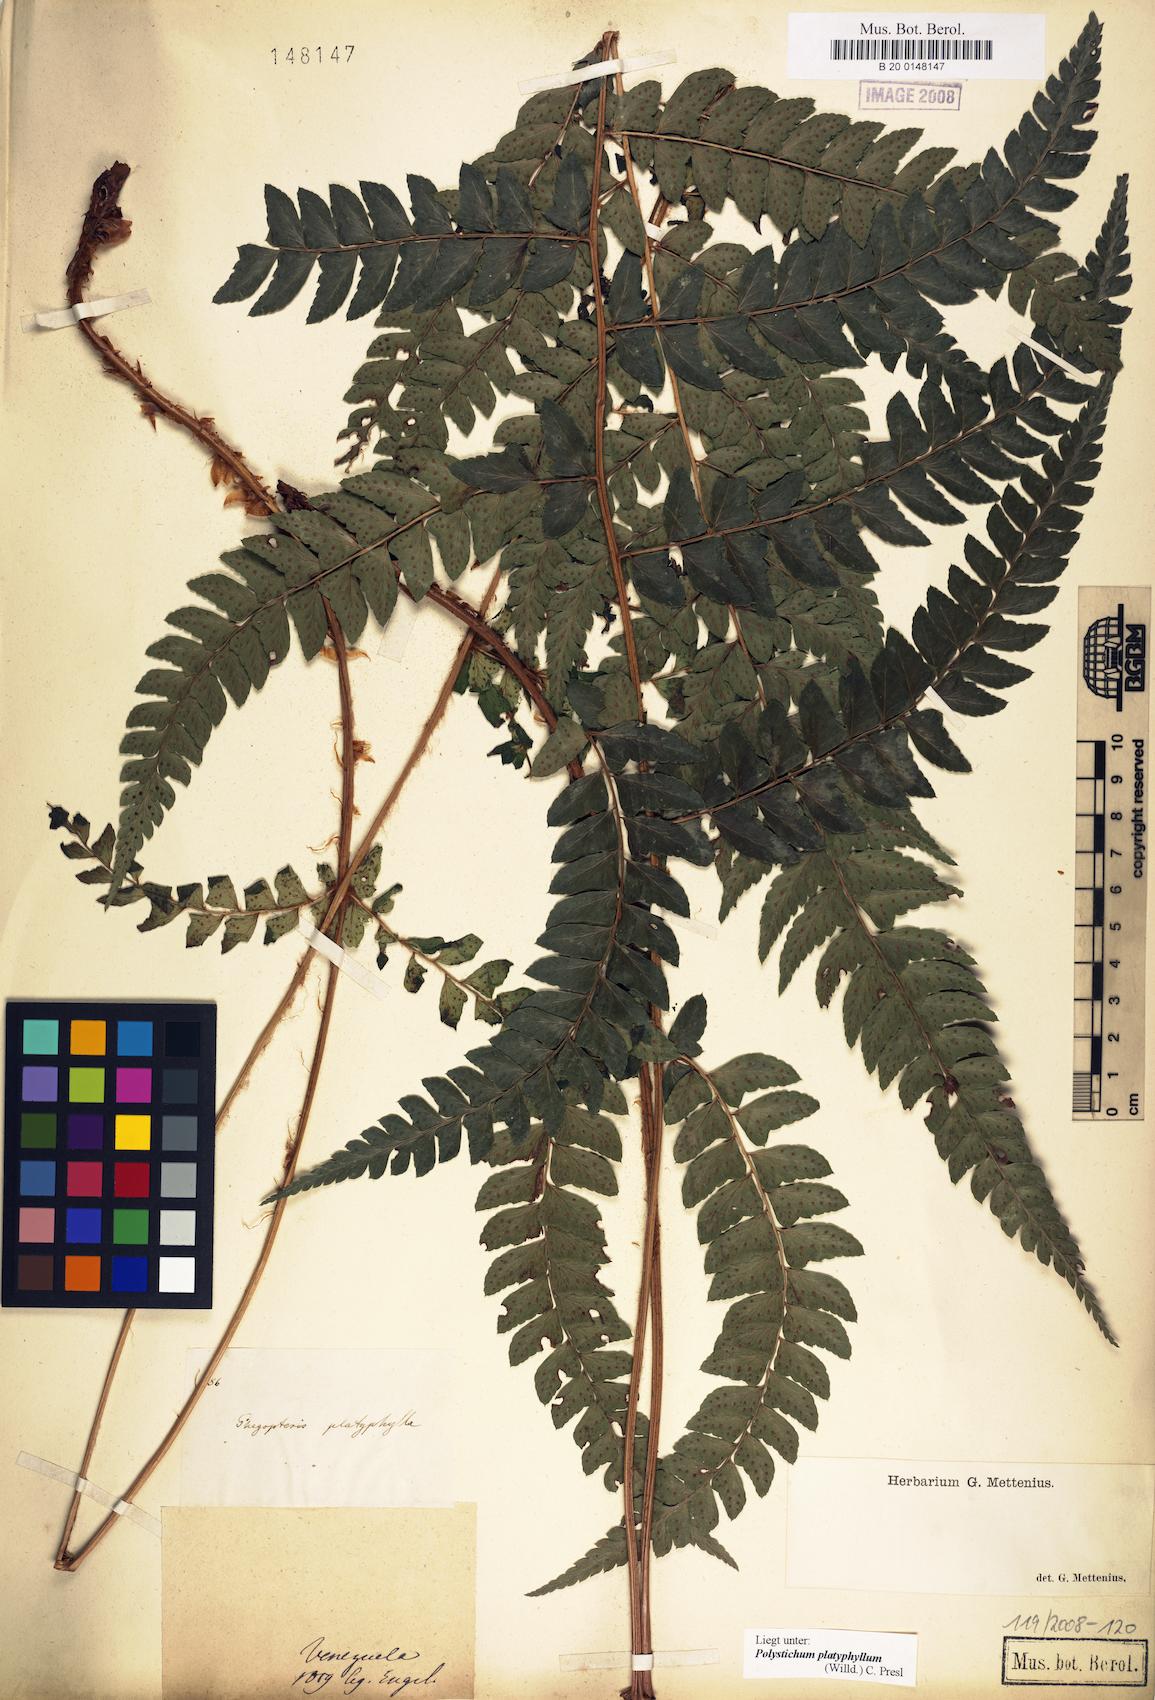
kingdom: Plantae
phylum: Tracheophyta
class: Polypodiopsida
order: Polypodiales
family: Dryopteridaceae
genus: Polystichum
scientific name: Polystichum platyphyllum
